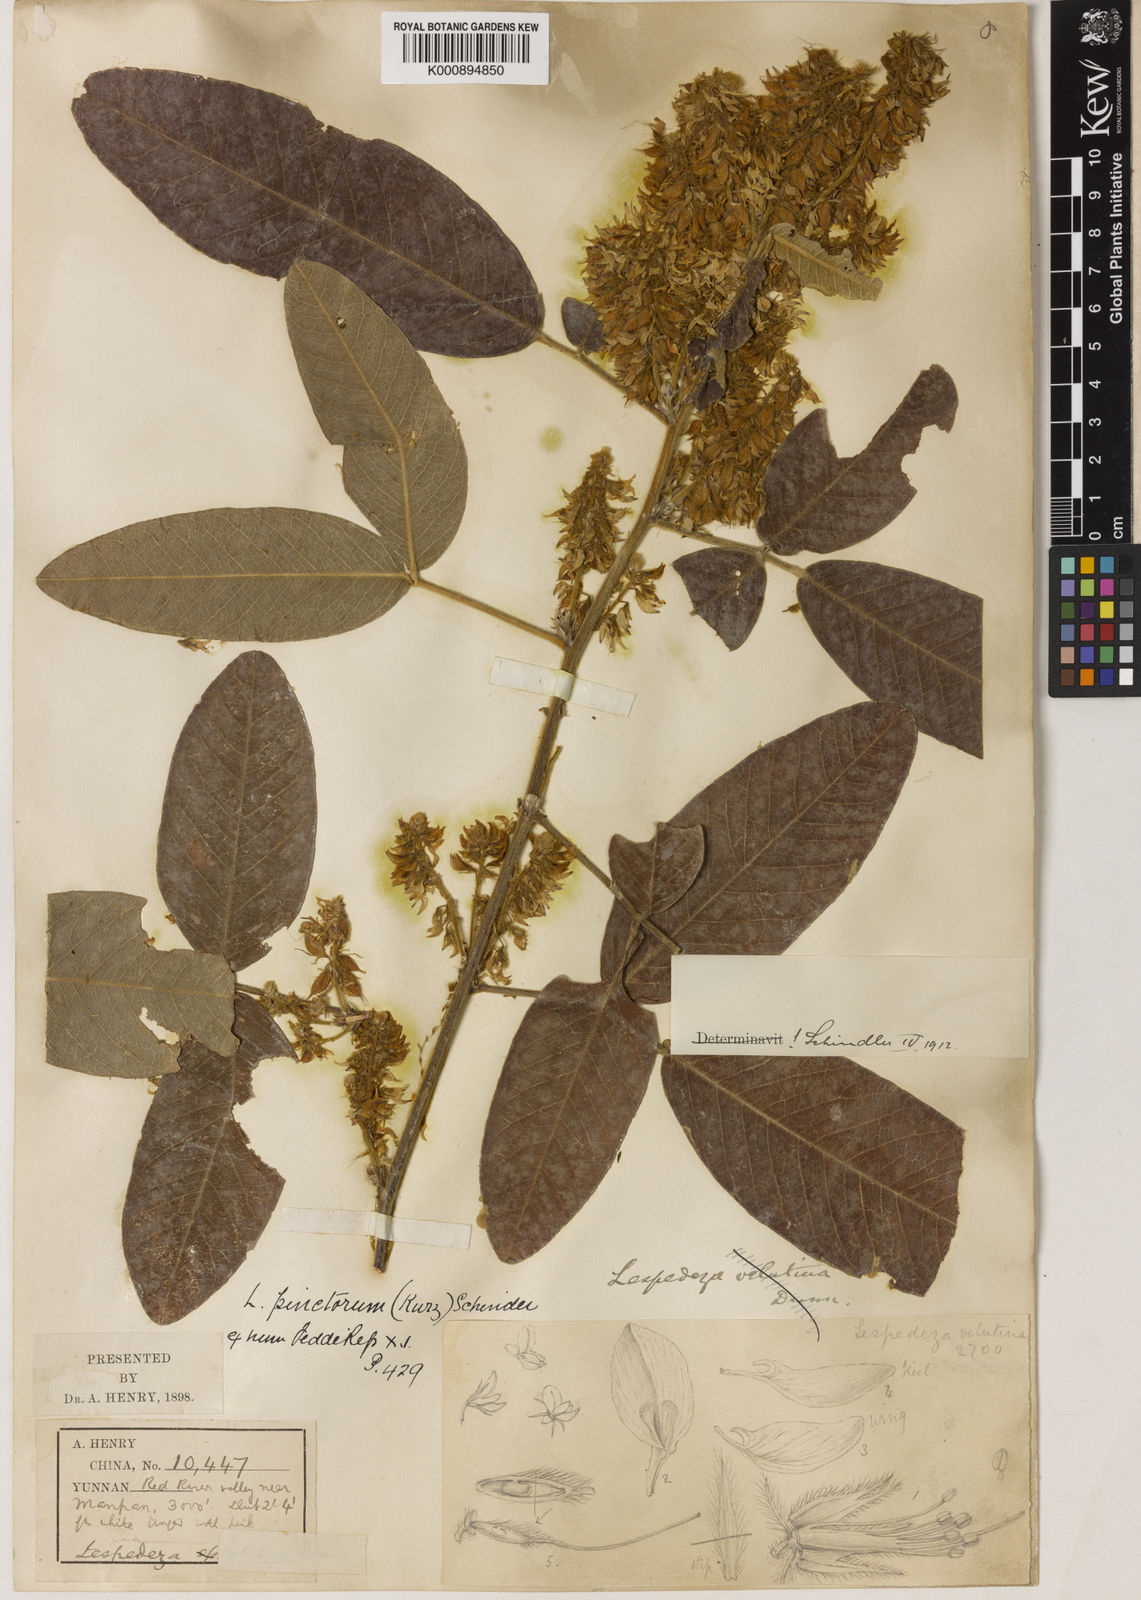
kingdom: Plantae
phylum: Tracheophyta
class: Magnoliopsida
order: Fabales
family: Fabaceae
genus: Campylotropis
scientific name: Campylotropis pinetorum
